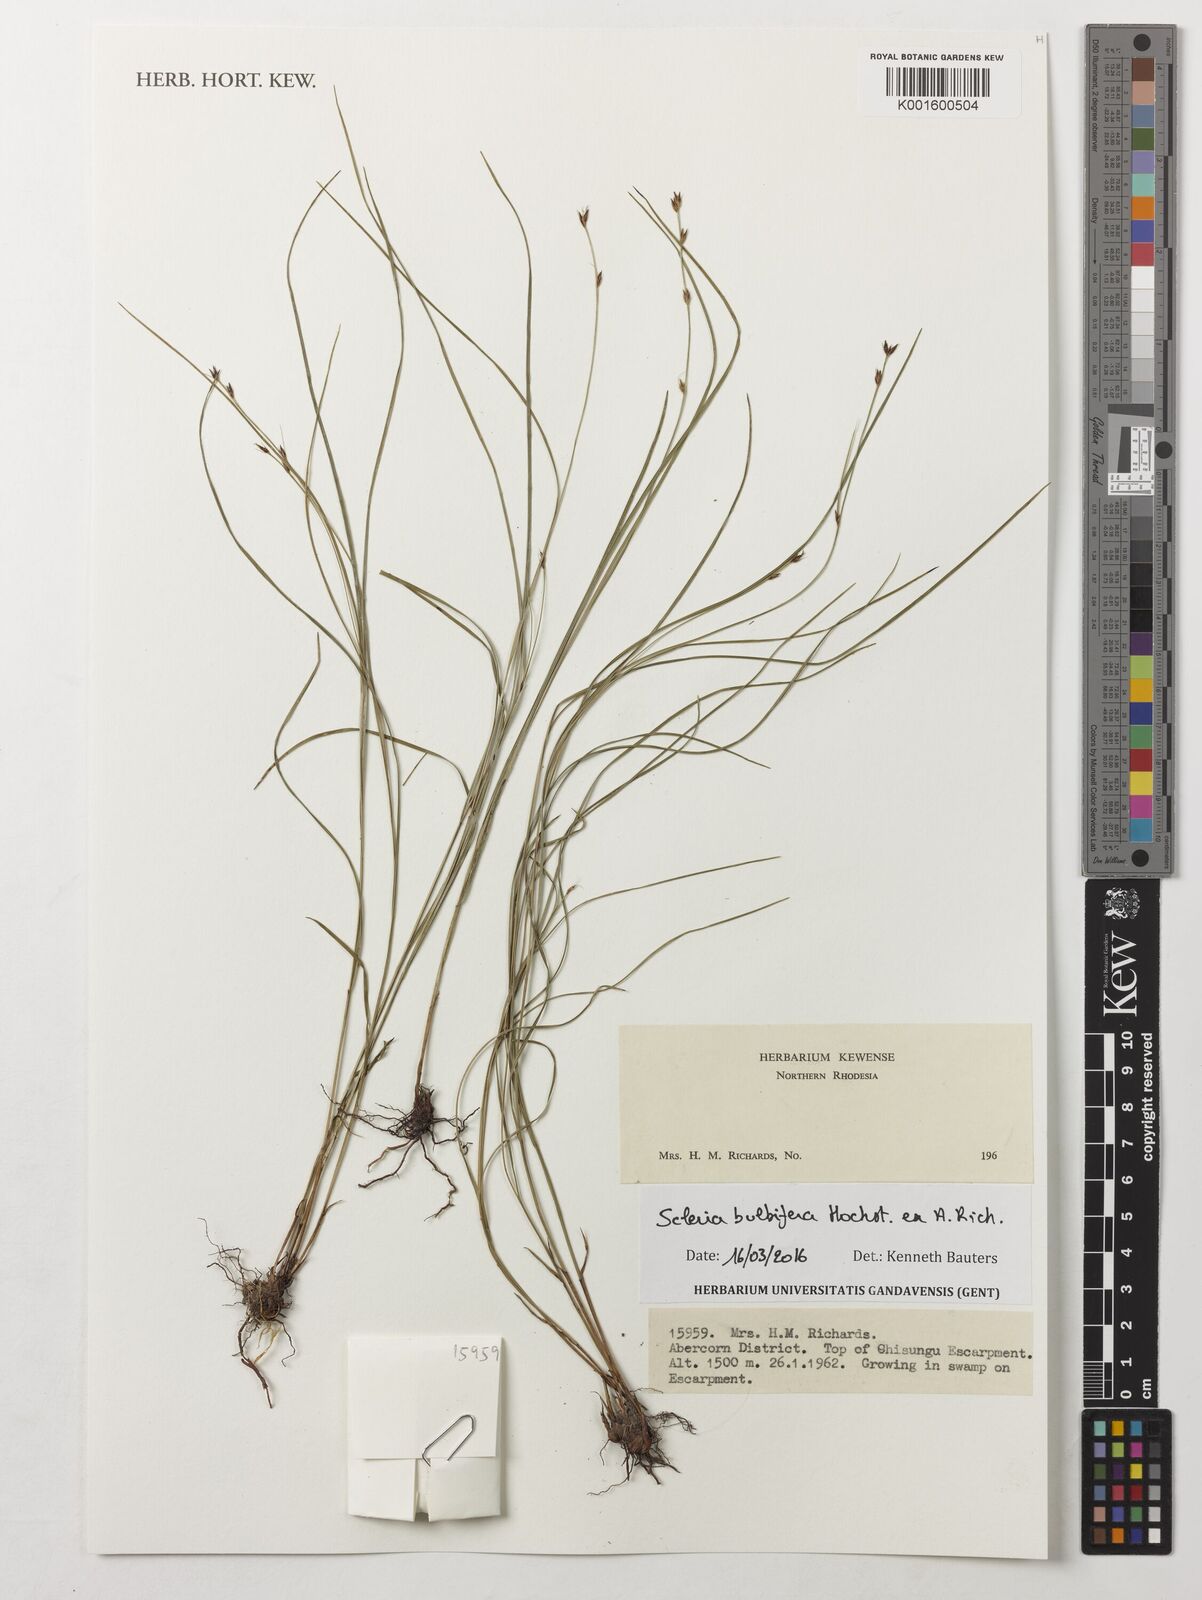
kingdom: Plantae
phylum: Tracheophyta
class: Liliopsida
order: Poales
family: Cyperaceae
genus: Scleria
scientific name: Scleria bulbifera
